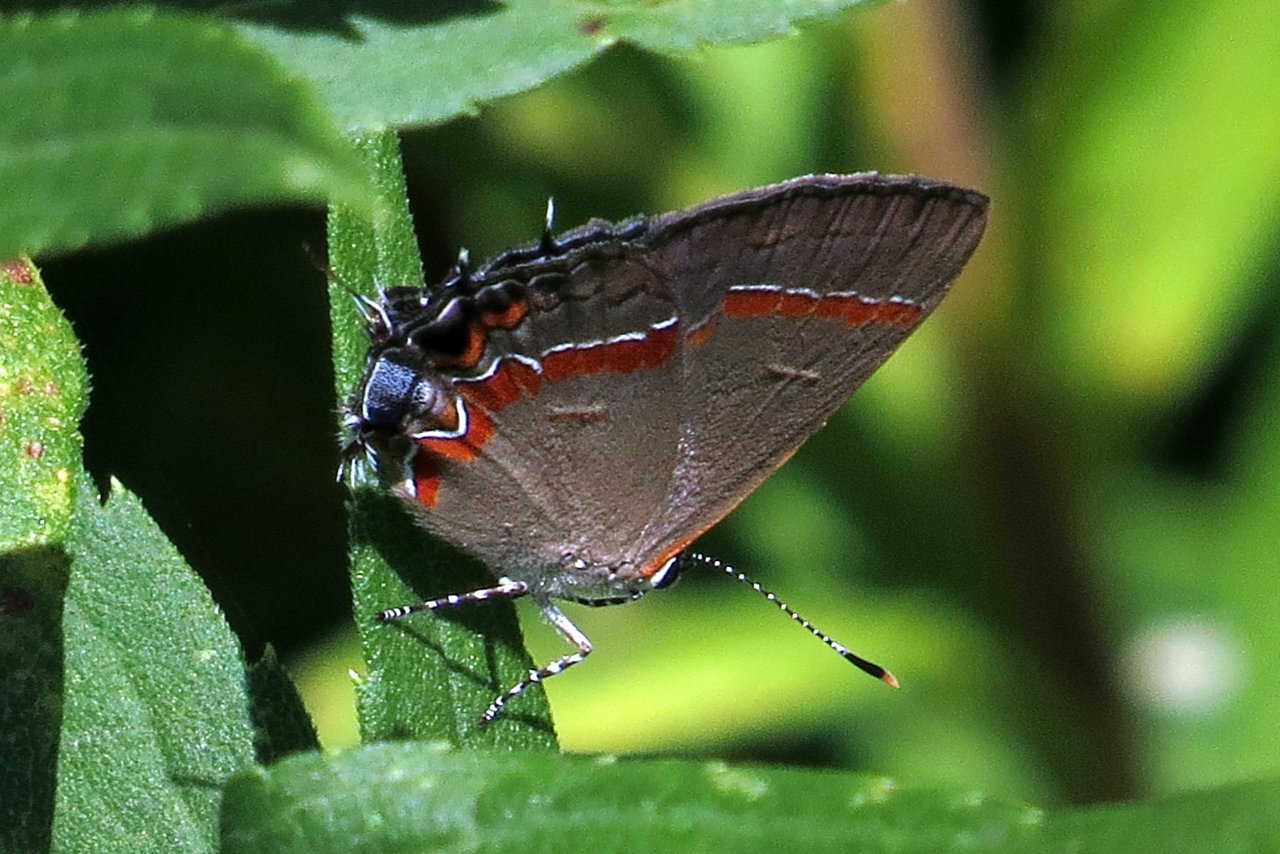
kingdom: Animalia
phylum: Arthropoda
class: Insecta
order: Lepidoptera
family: Lycaenidae
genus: Calycopis
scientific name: Calycopis cecrops
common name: Red-banded Hairstreak
